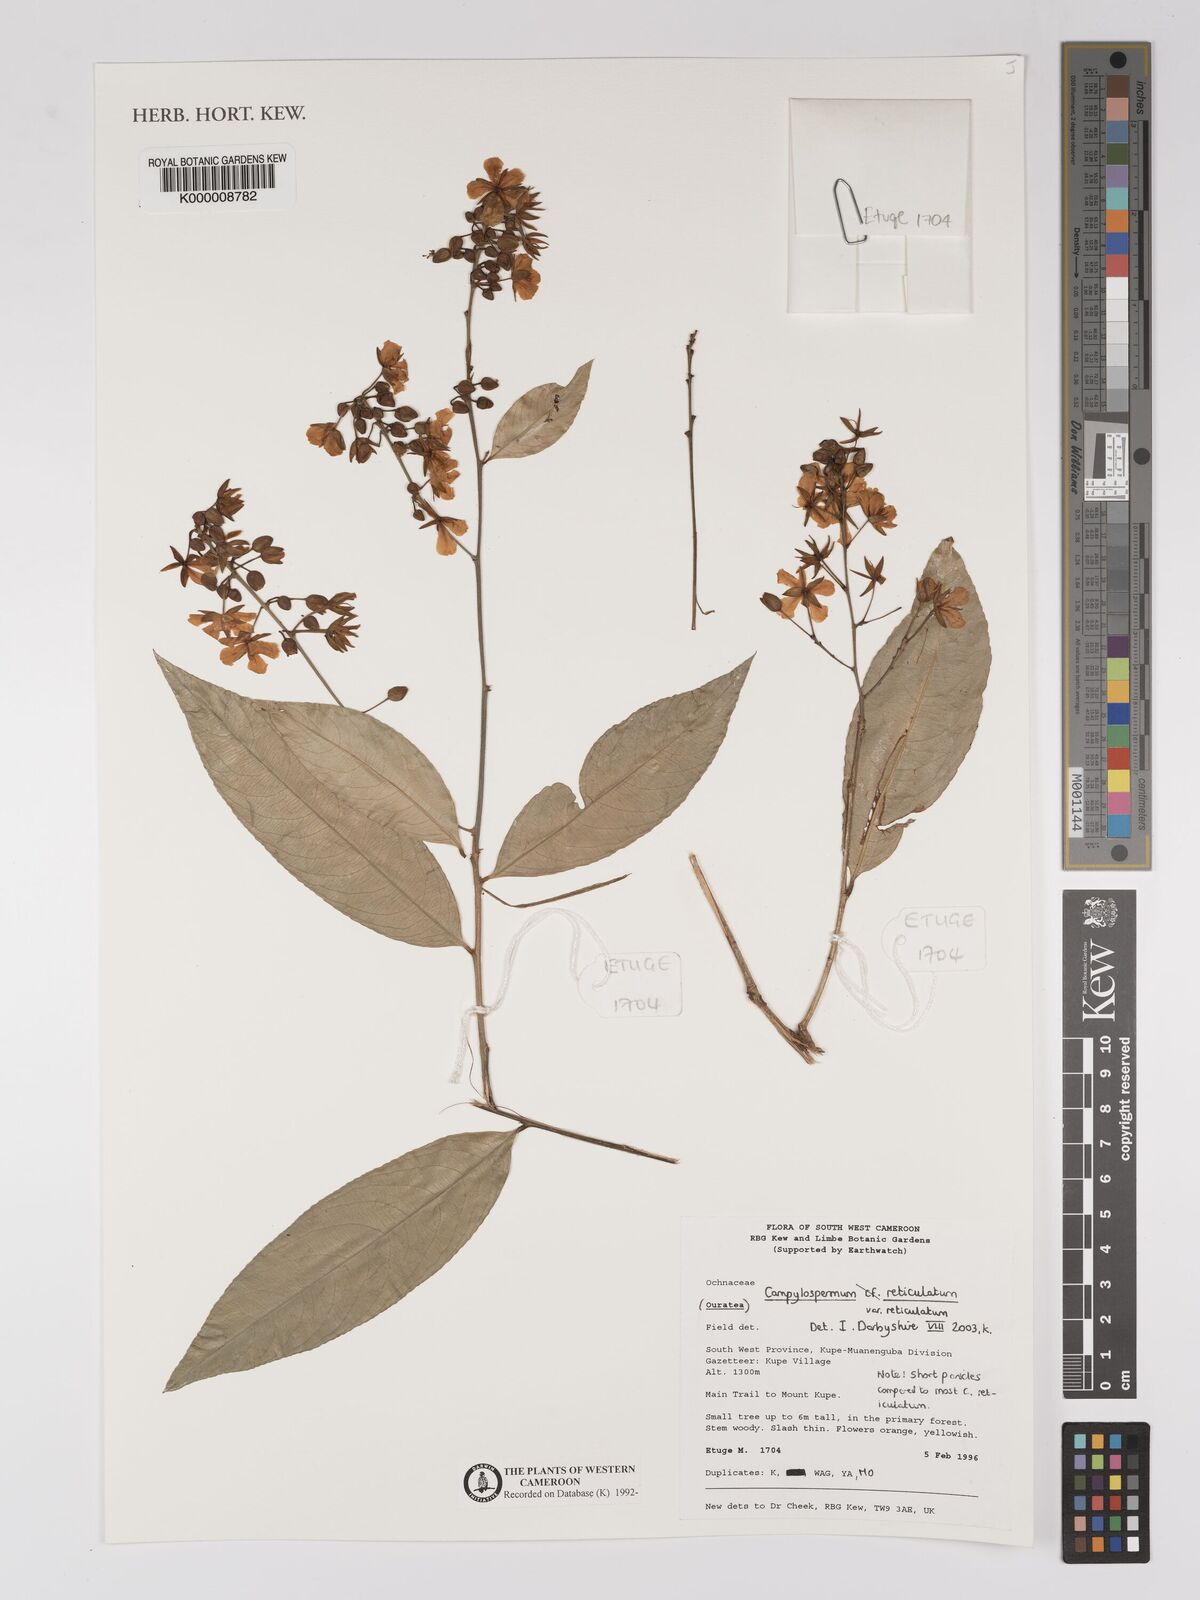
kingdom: Plantae
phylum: Tracheophyta
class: Magnoliopsida
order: Malpighiales
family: Ochnaceae
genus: Campylospermum
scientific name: Campylospermum reticulatum
